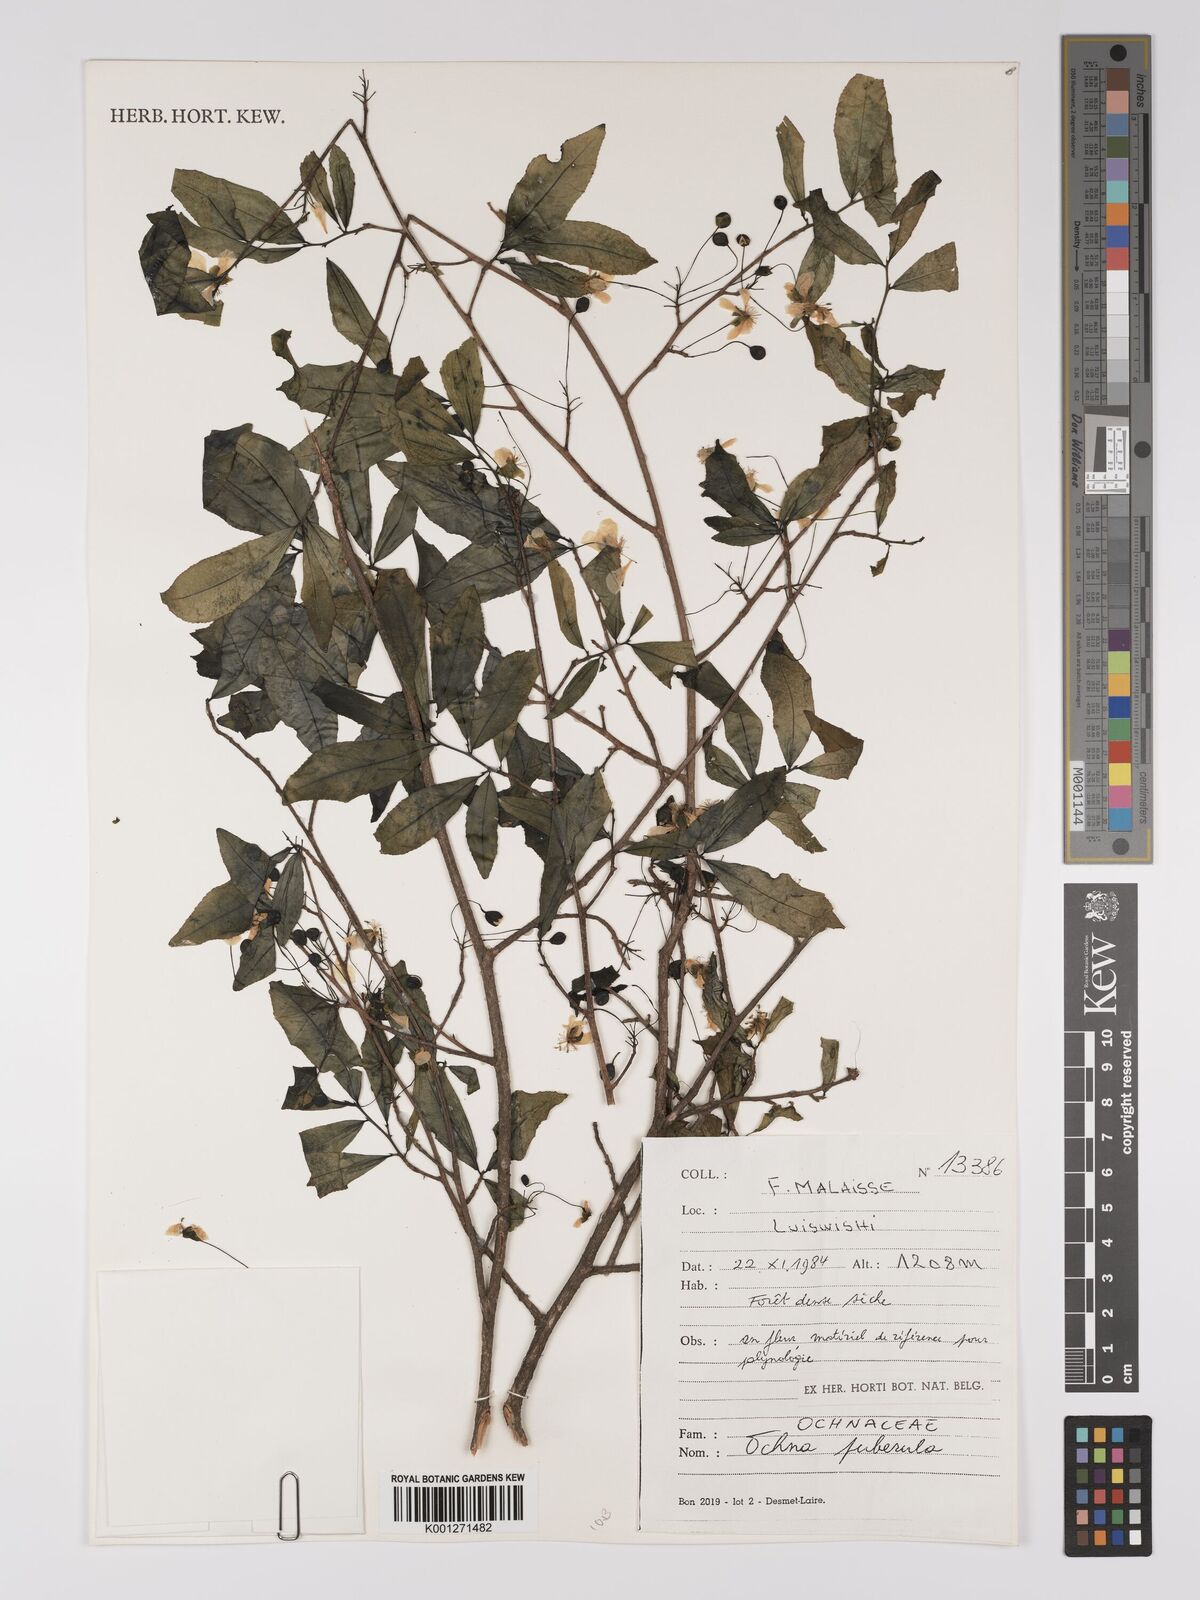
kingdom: Plantae
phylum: Tracheophyta
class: Magnoliopsida
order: Malpighiales
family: Ochnaceae
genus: Ochna
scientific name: Ochna puberula
